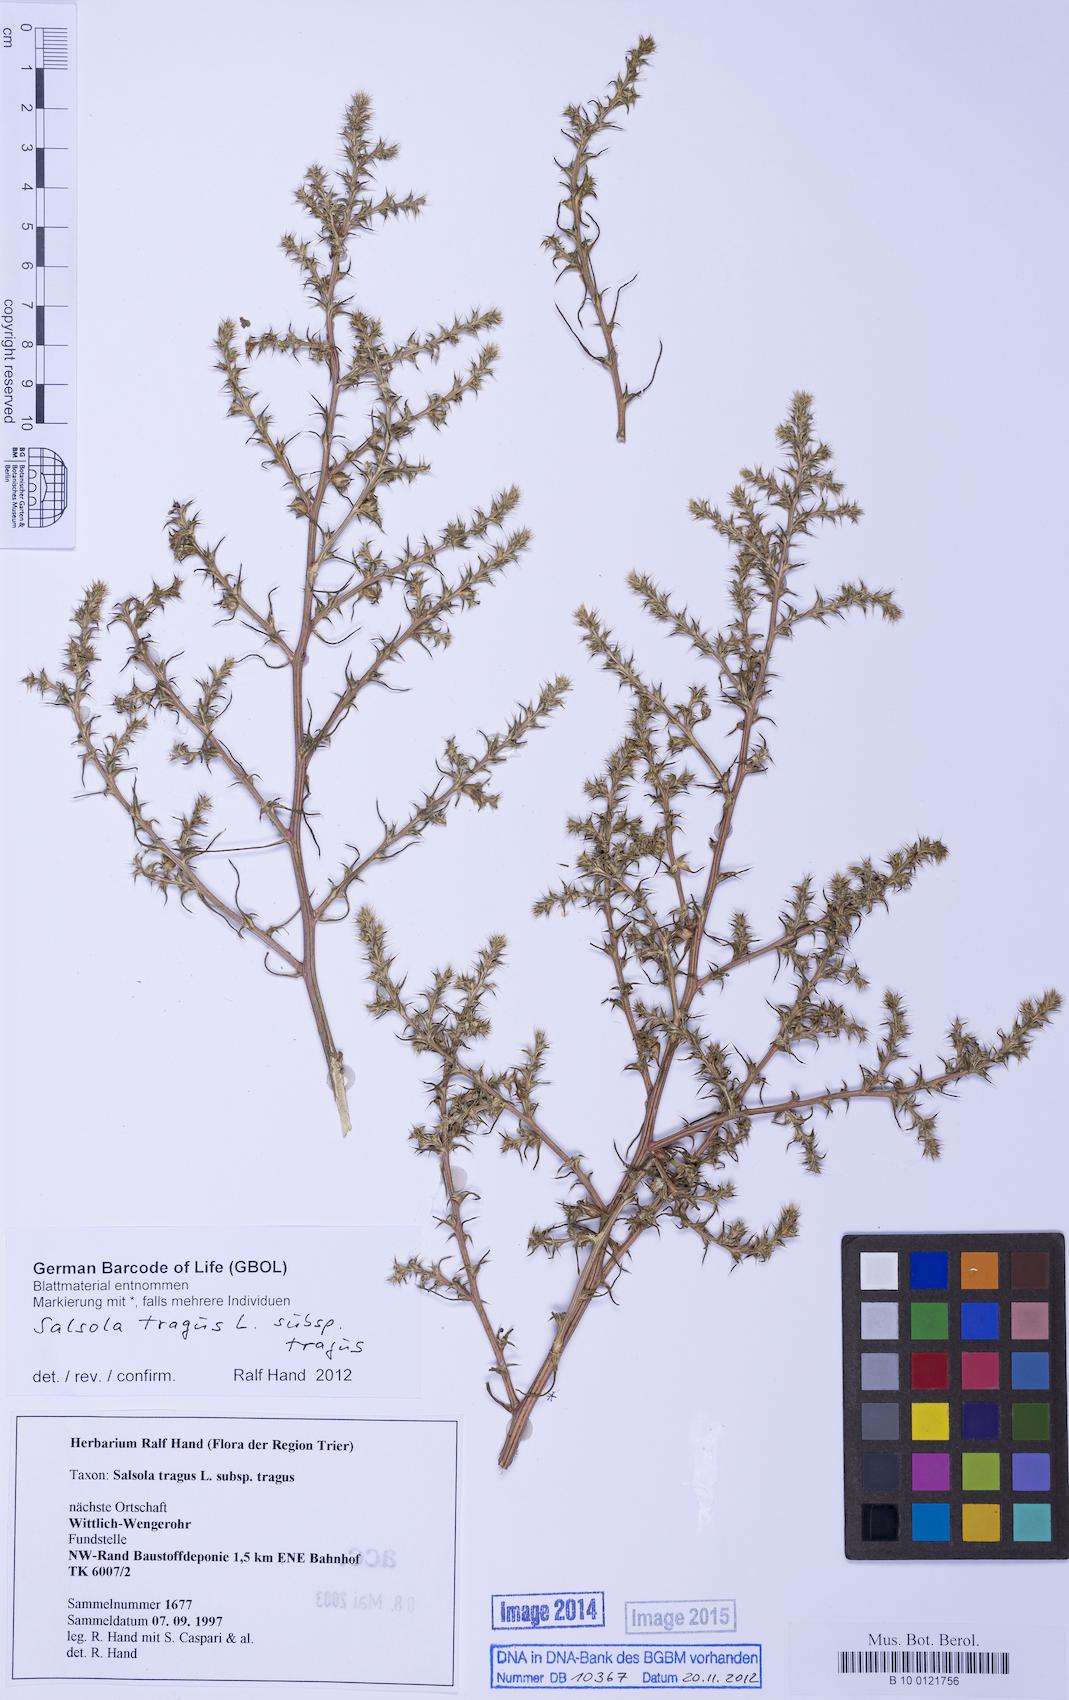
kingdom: Plantae
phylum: Tracheophyta
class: Magnoliopsida
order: Caryophyllales
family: Amaranthaceae
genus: Salsola
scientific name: Salsola tragus
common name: Prickly russian thistle
